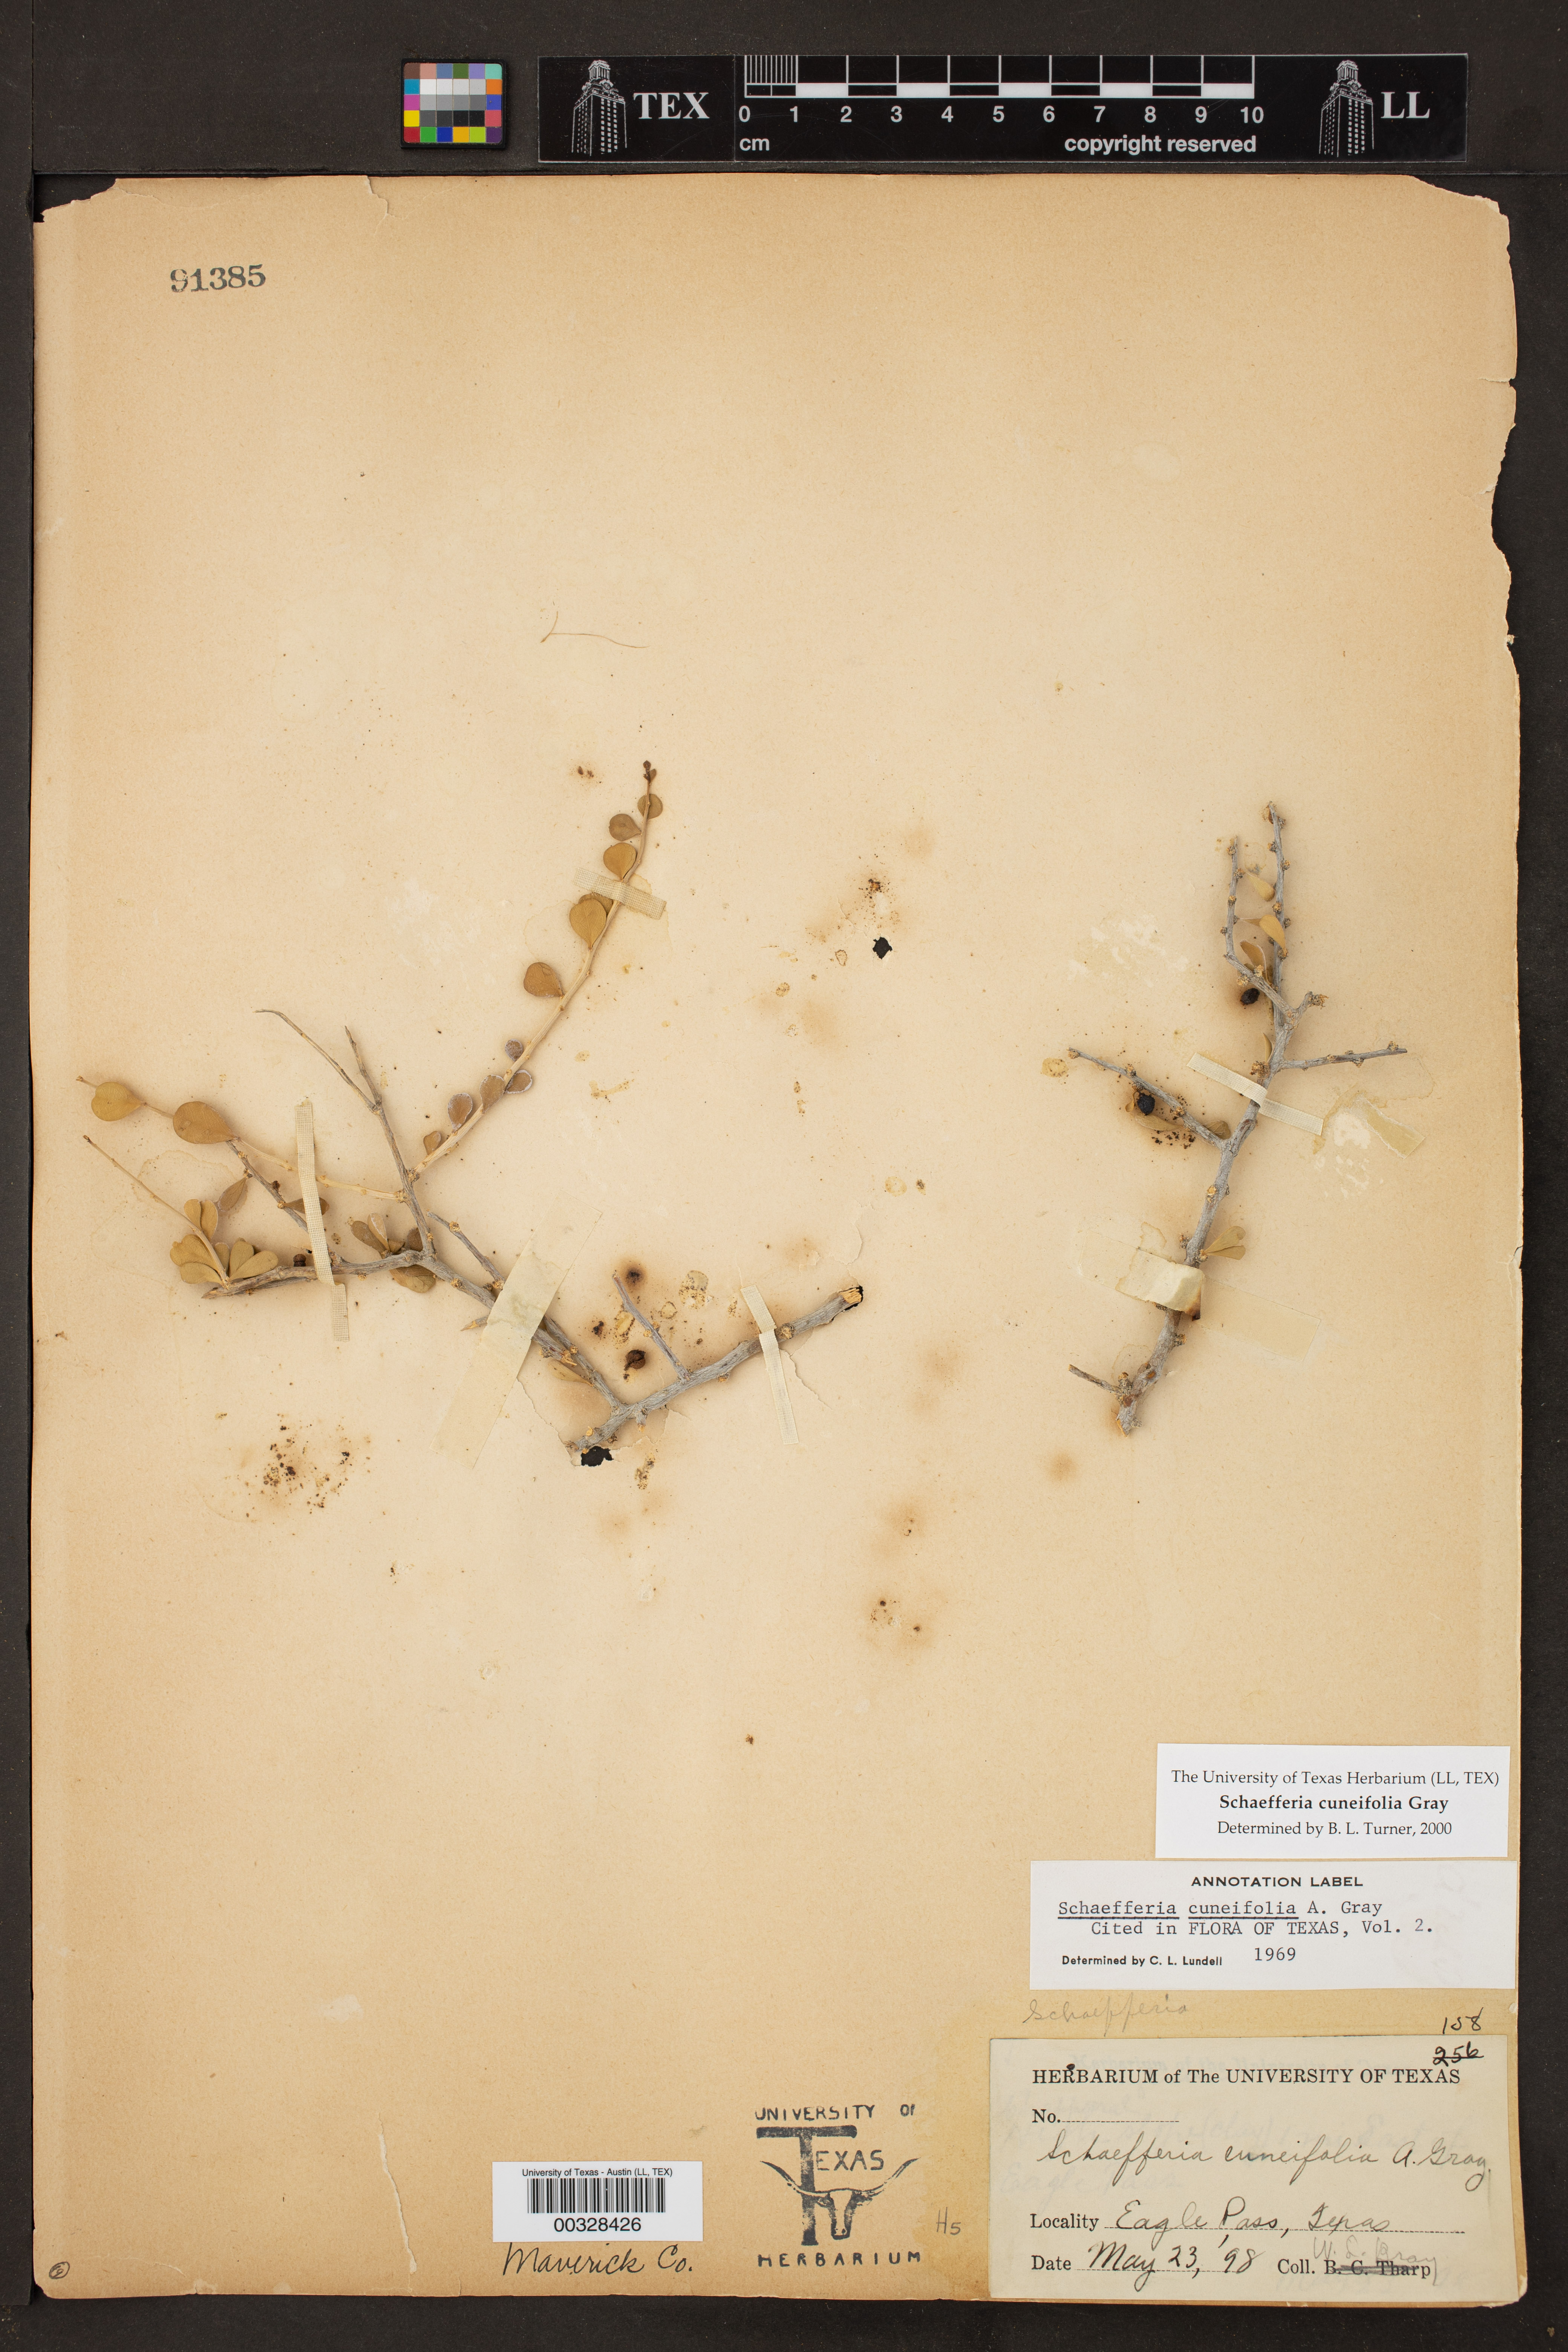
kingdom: Plantae
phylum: Tracheophyta
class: Magnoliopsida
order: Celastrales
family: Celastraceae
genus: Schaefferia
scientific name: Schaefferia cuneifolia
